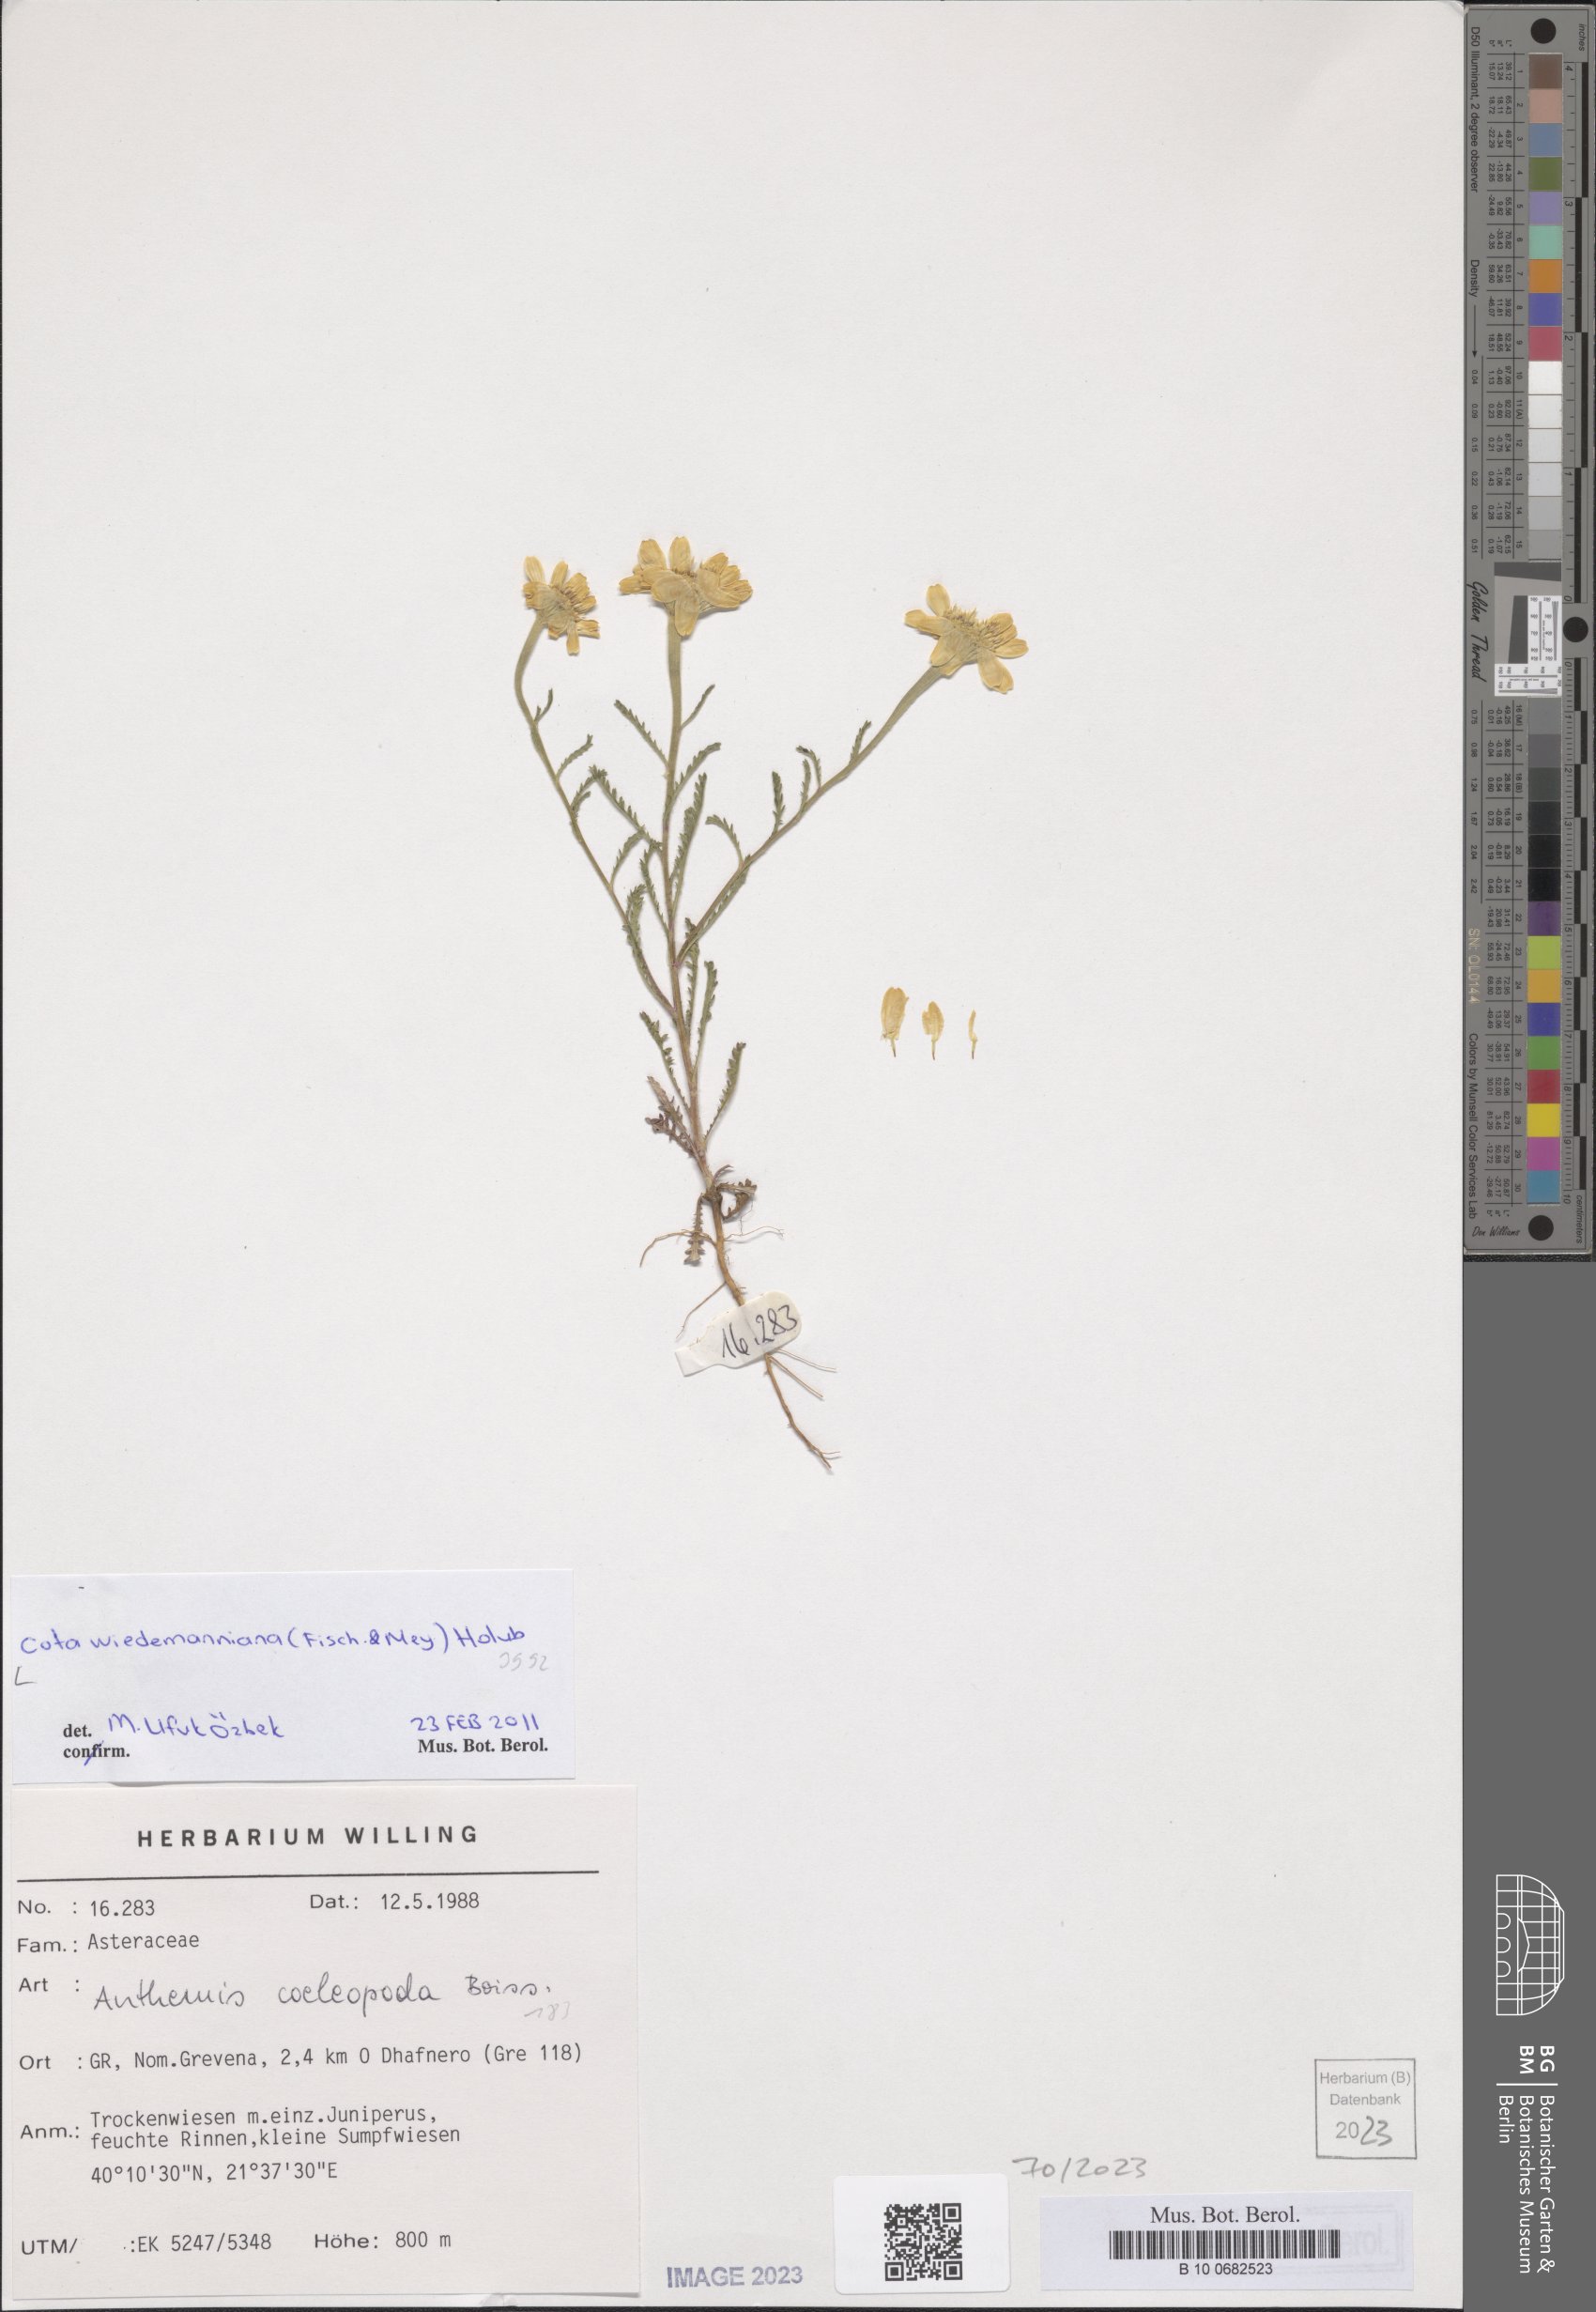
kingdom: Plantae
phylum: Tracheophyta
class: Magnoliopsida
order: Asterales
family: Asteraceae
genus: Cota
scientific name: Cota wiedemanniana
